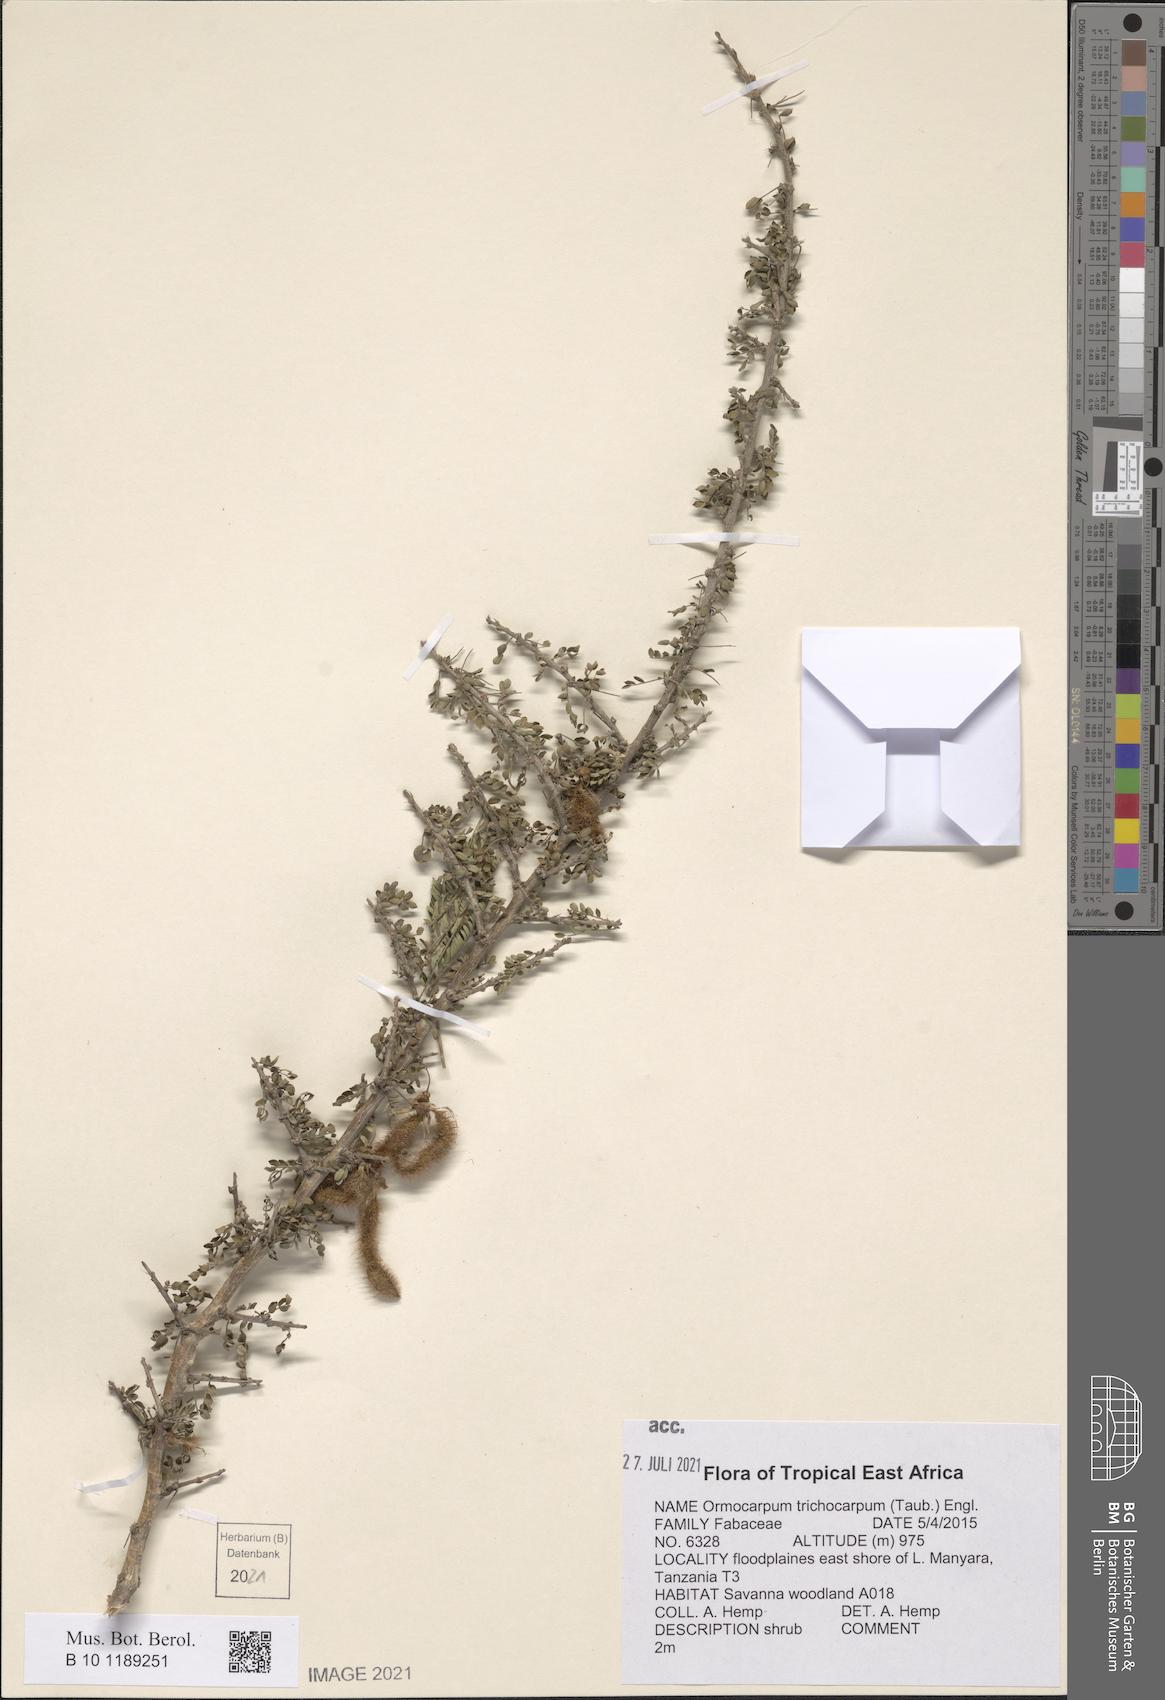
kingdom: Plantae
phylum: Tracheophyta
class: Magnoliopsida
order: Fabales
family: Fabaceae
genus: Ormocarpum
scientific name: Ormocarpum trichocarpum
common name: Caterpillar bush
